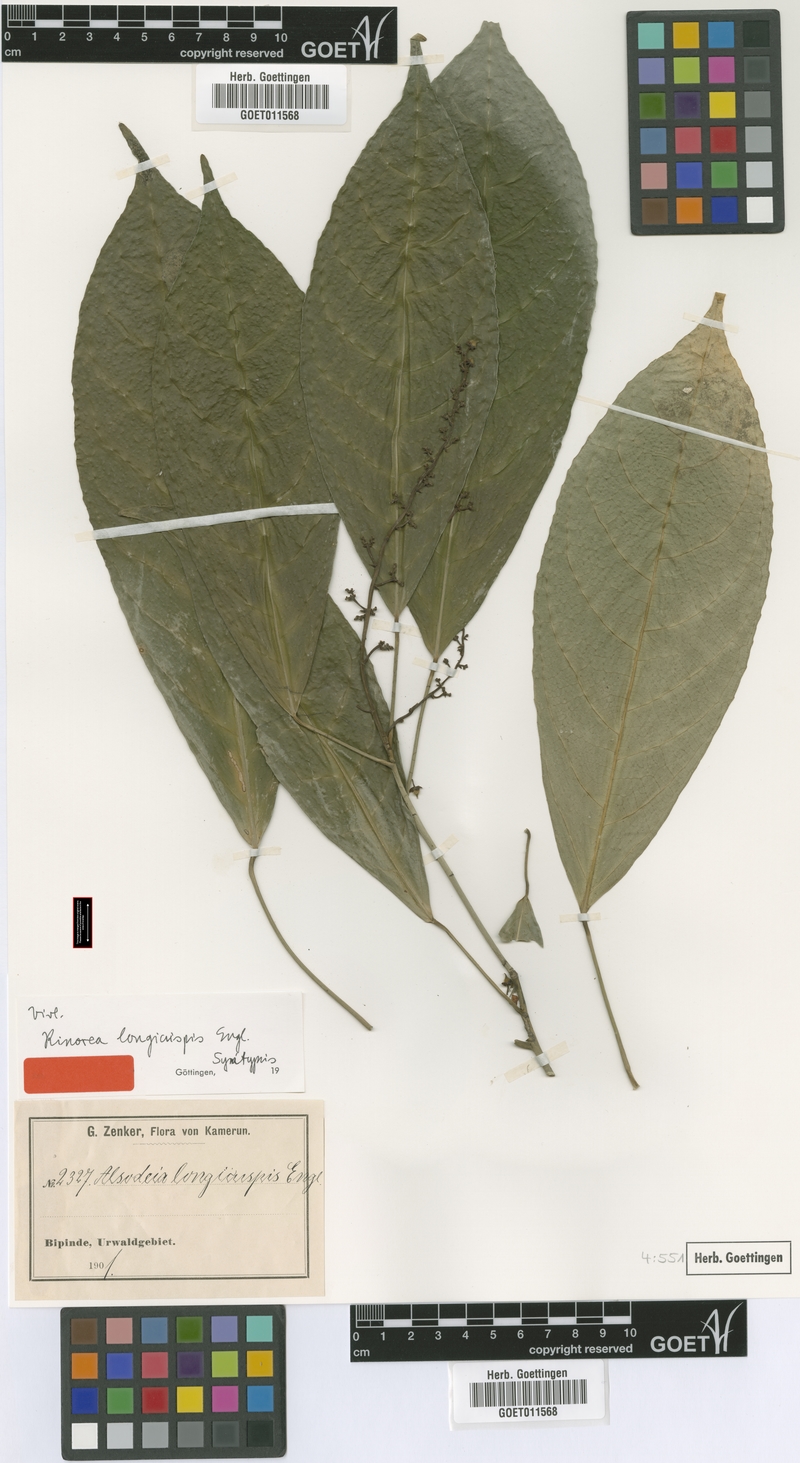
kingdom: Plantae
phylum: Tracheophyta
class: Magnoliopsida
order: Malpighiales
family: Violaceae
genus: Rinorea
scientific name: Rinorea welwitschii
